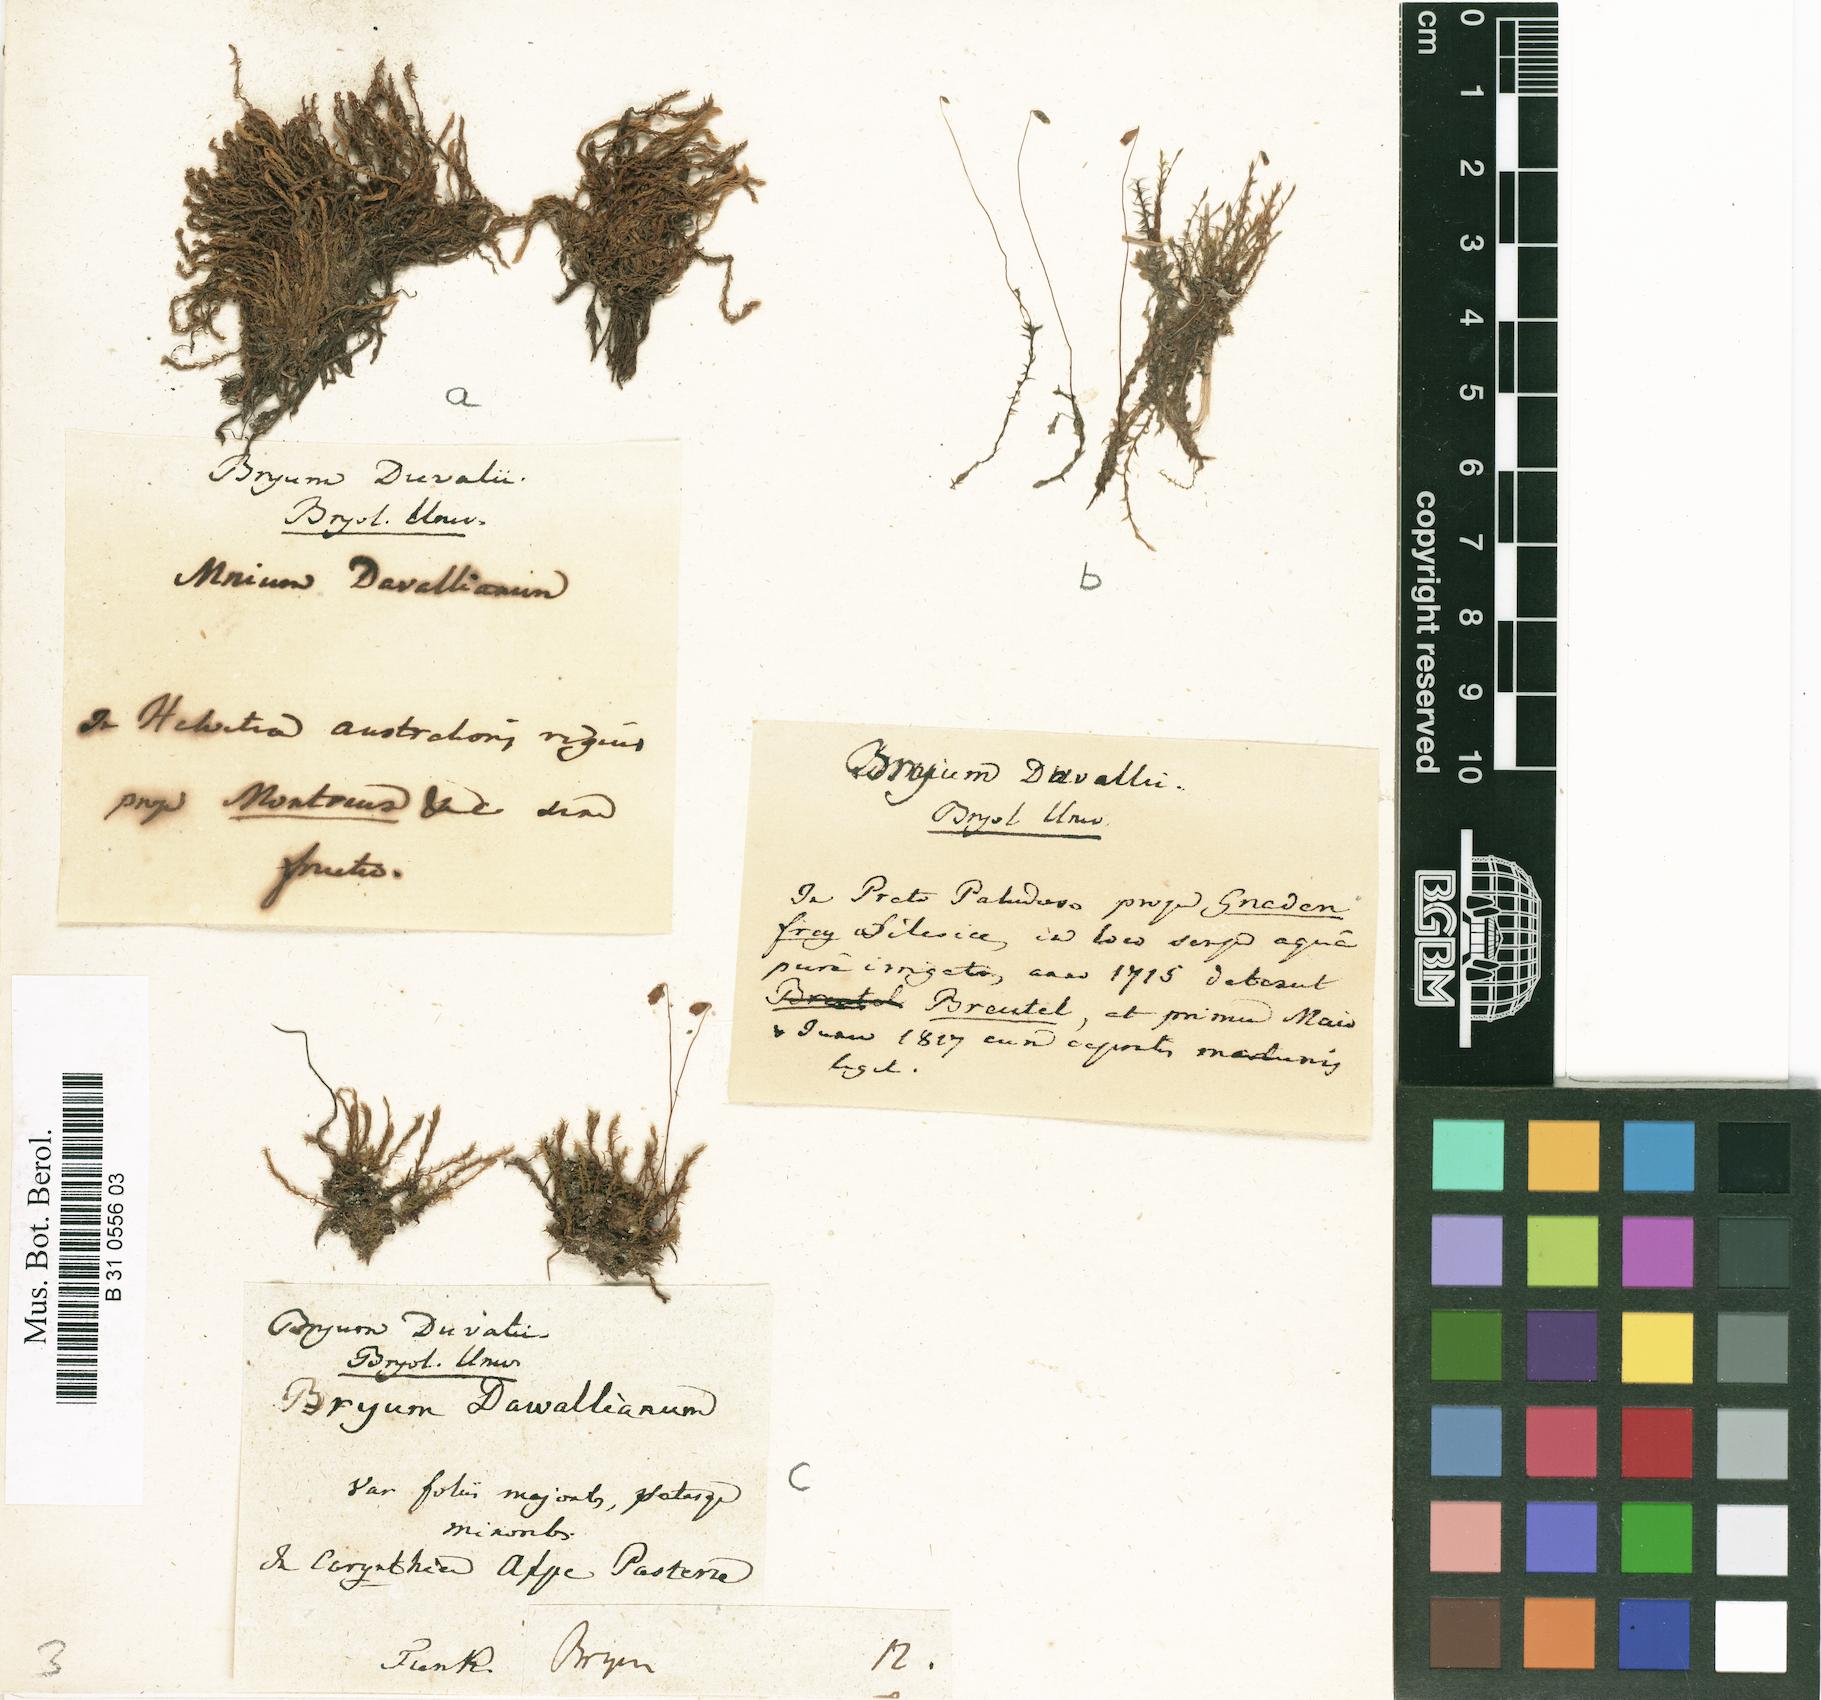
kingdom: Plantae
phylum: Bryophyta
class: Bryopsida
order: Bryales
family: Bryaceae
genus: Ptychostomum
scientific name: Ptychostomum weigelii
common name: Weigel's bryum moss
